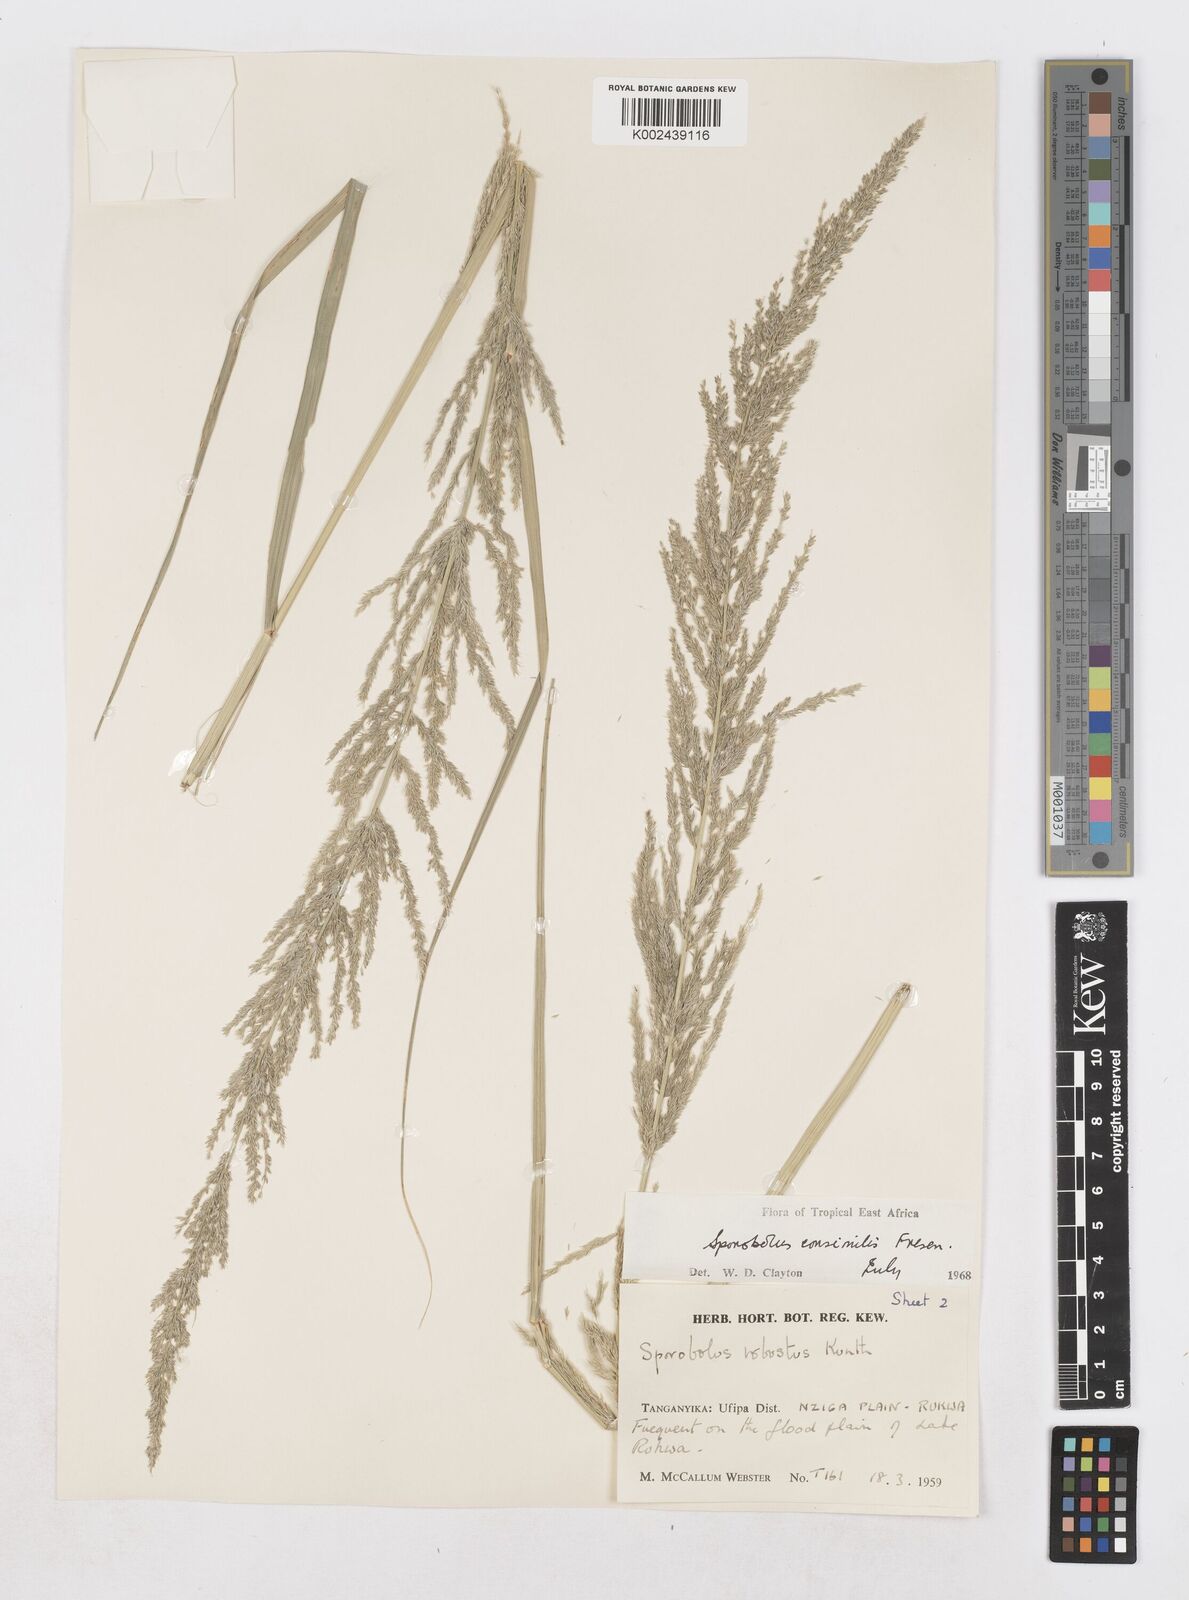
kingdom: Plantae
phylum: Tracheophyta
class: Liliopsida
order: Poales
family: Poaceae
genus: Sporobolus
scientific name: Sporobolus consimilis
